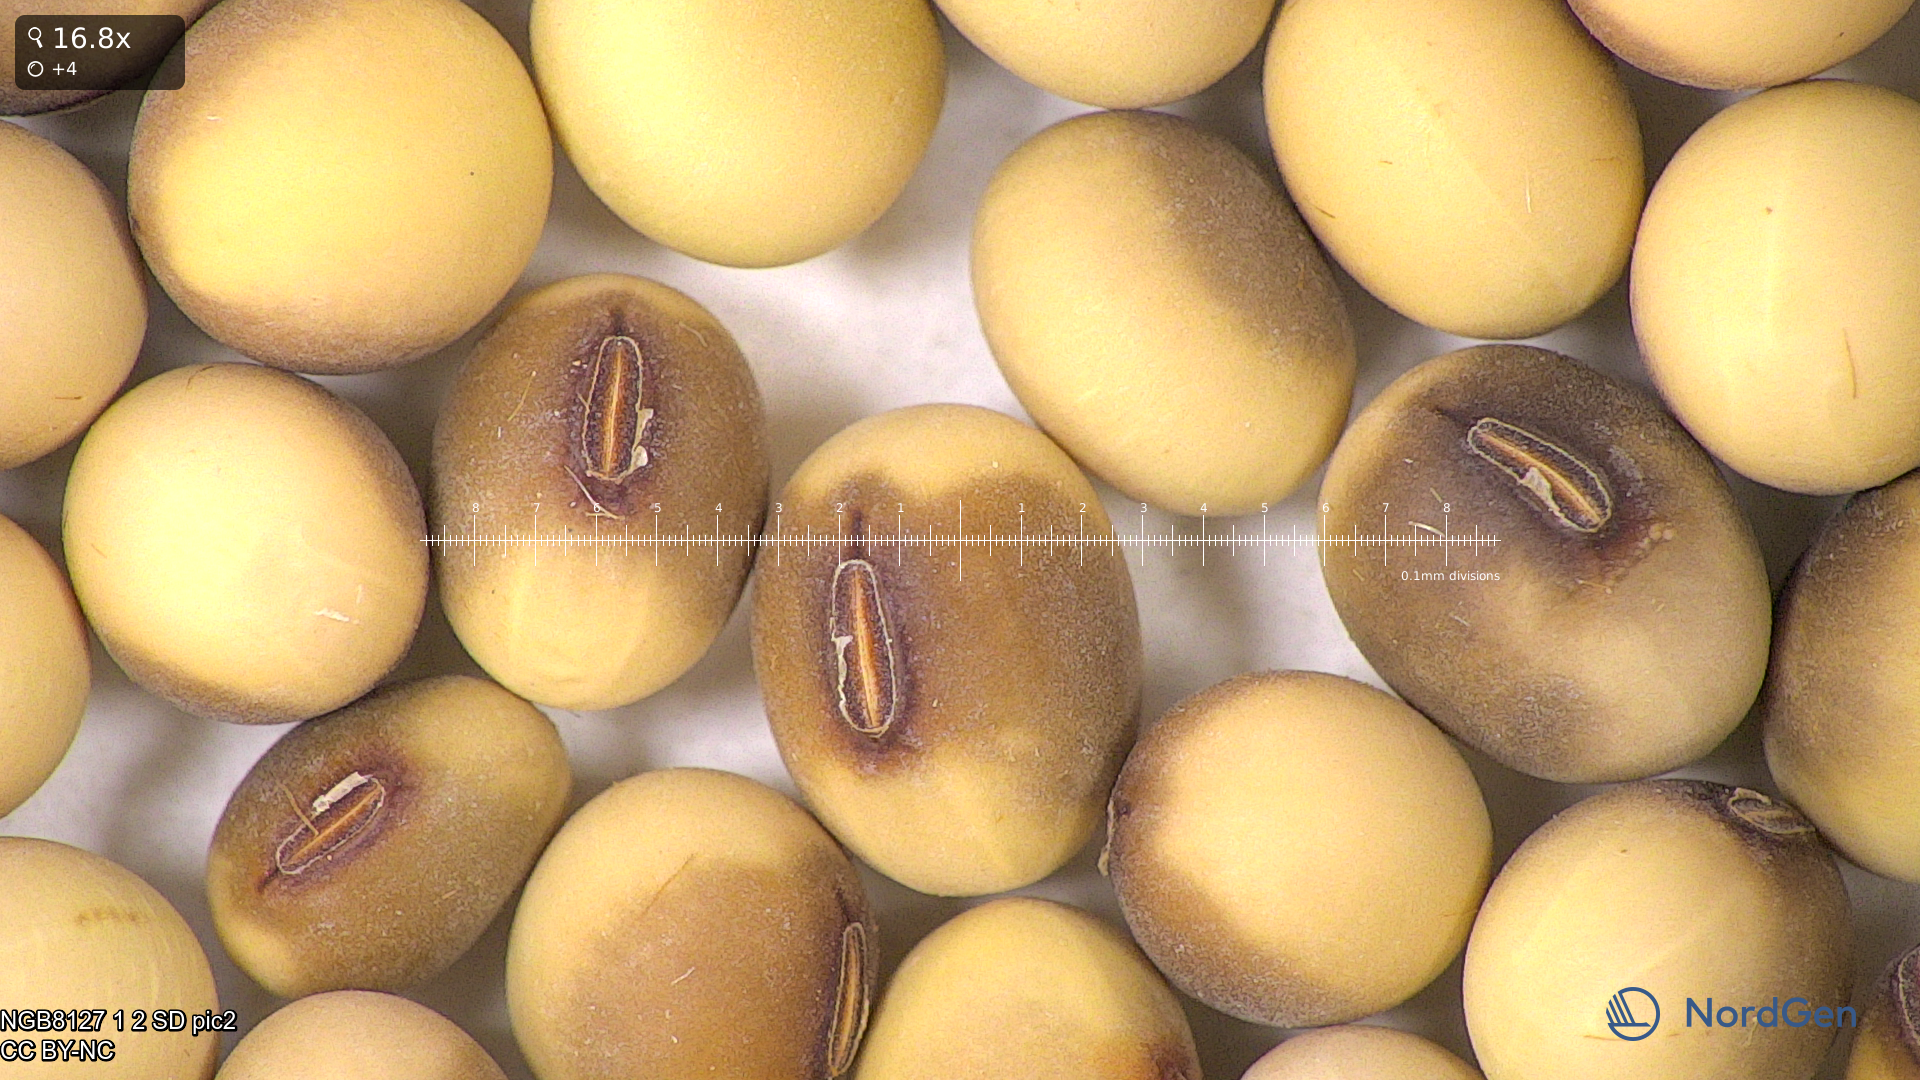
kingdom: Plantae
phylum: Tracheophyta
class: Magnoliopsida
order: Fabales
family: Fabaceae
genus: Glycine
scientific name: Glycine max
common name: Soya-bean
